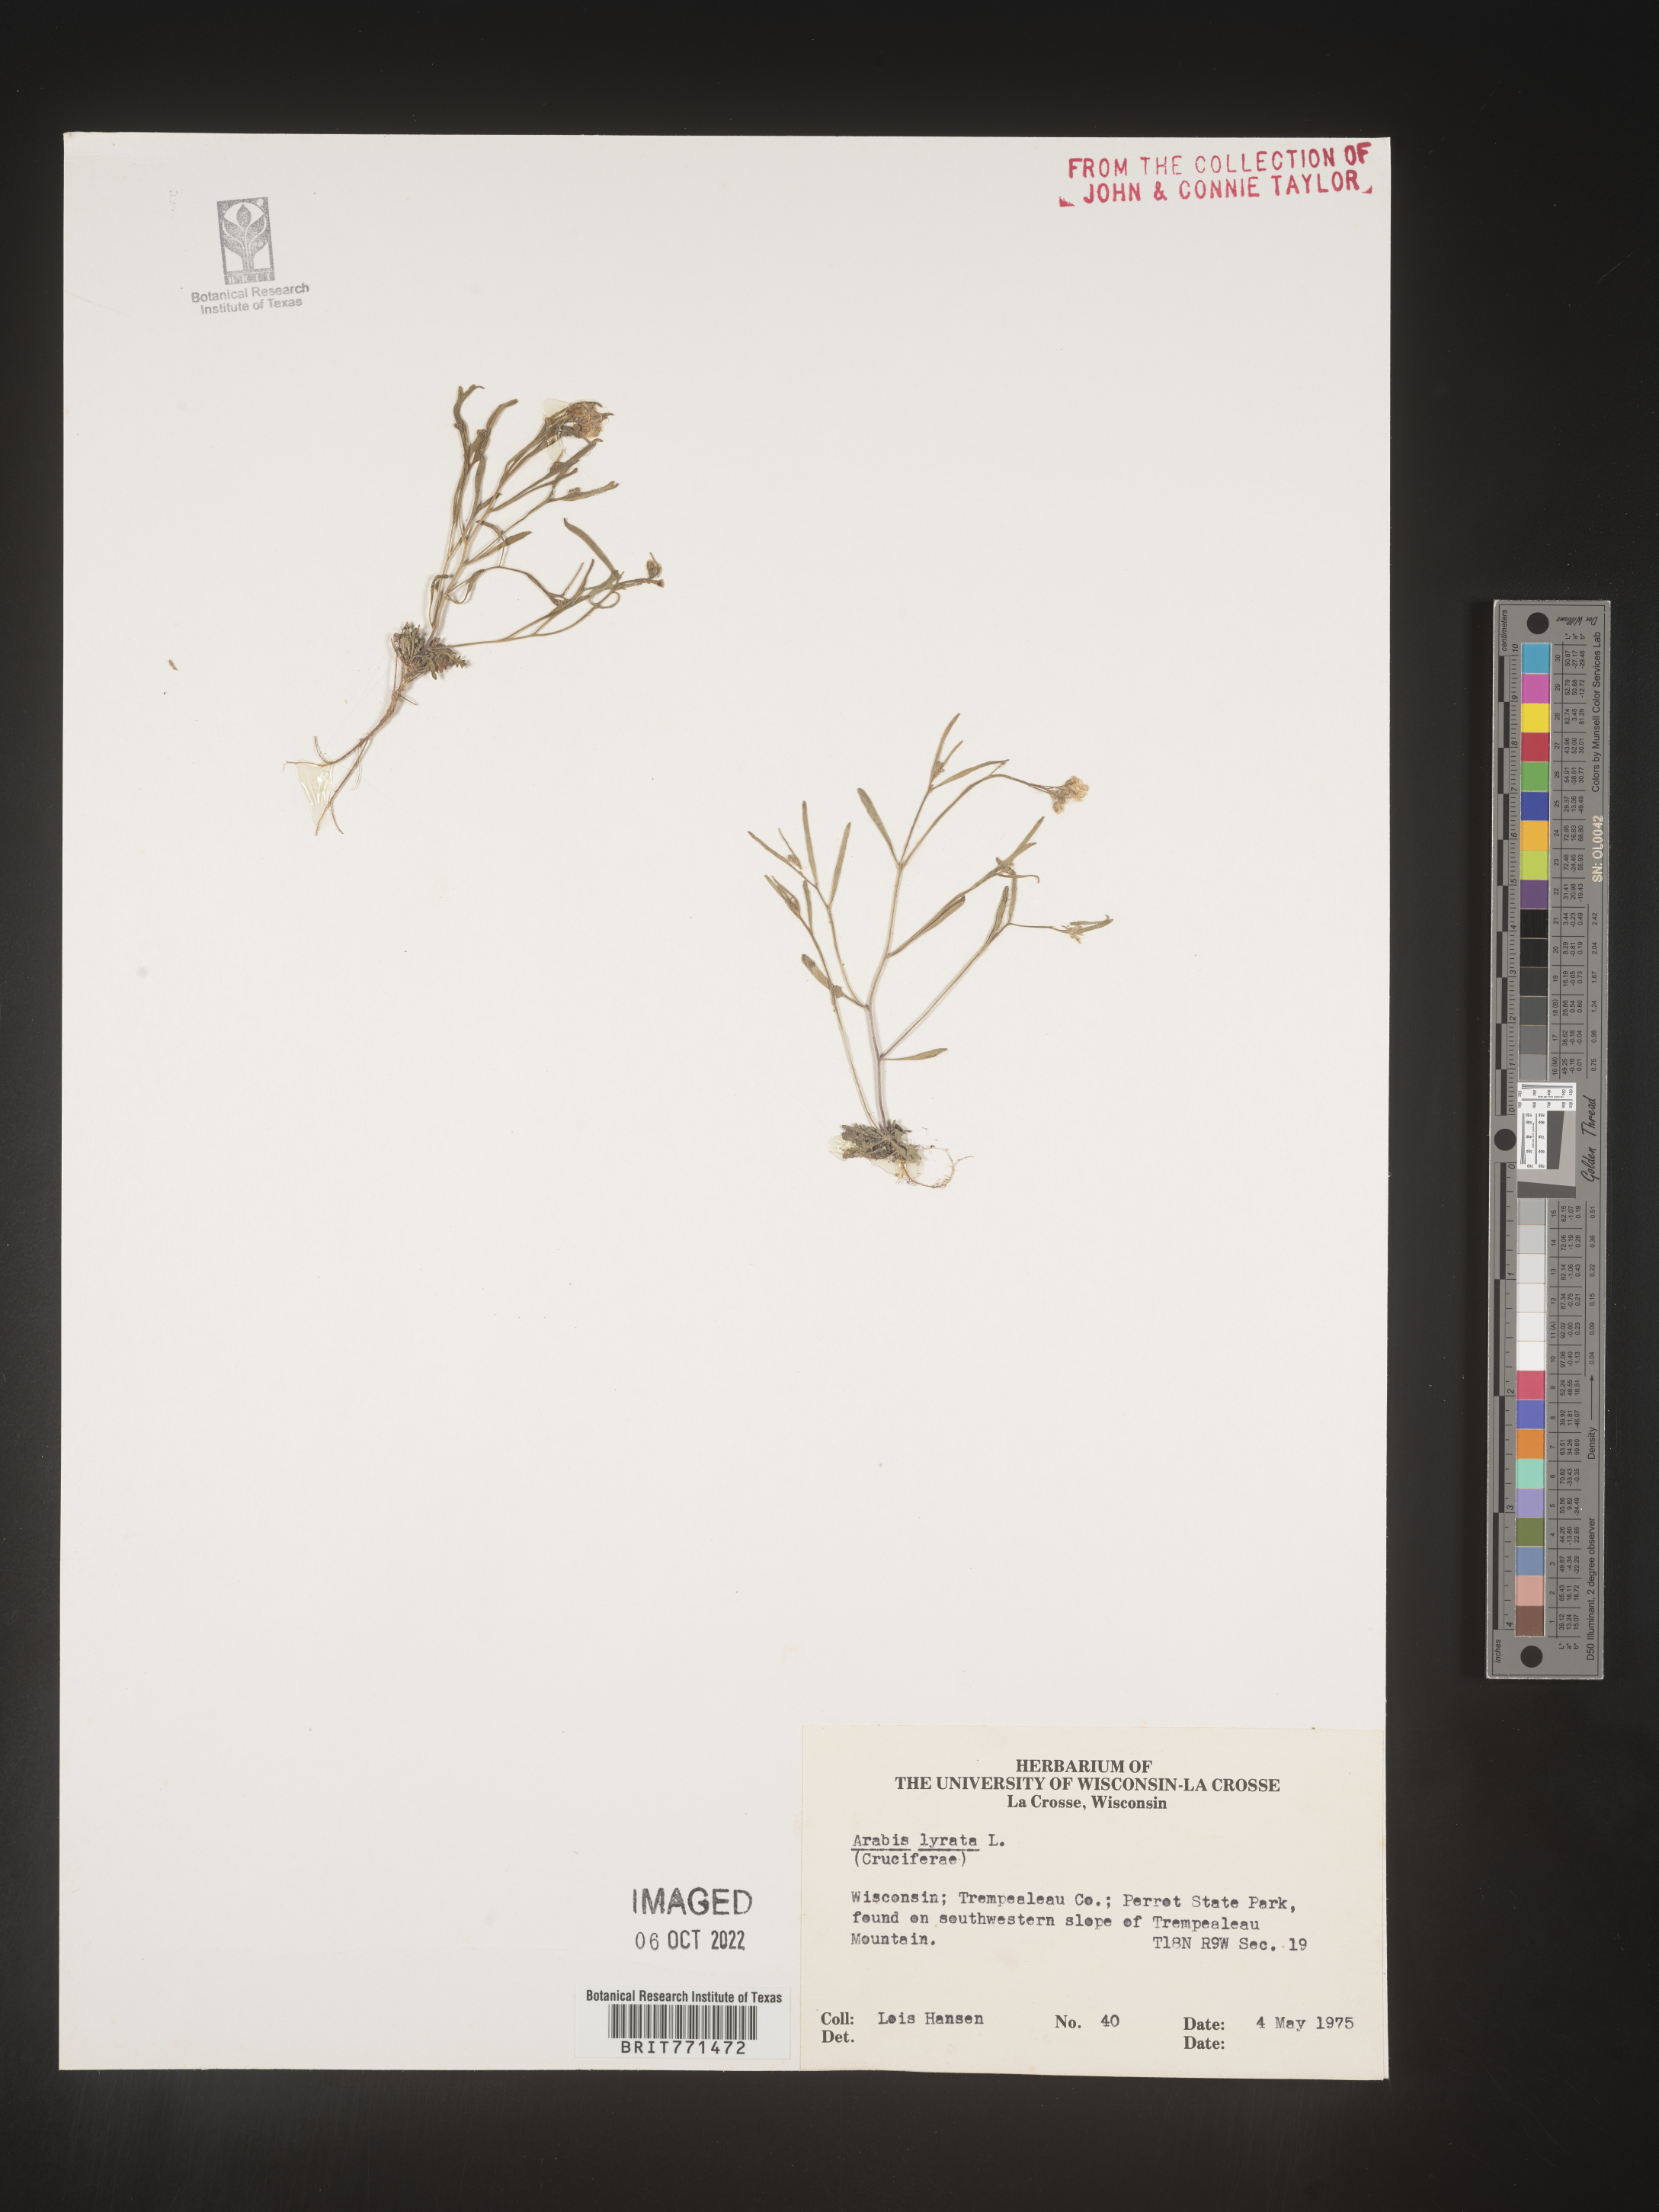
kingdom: Plantae
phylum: Tracheophyta
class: Magnoliopsida
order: Brassicales
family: Brassicaceae
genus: Arabidopsis
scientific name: Arabidopsis lyrata
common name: Lyrate rockcress
